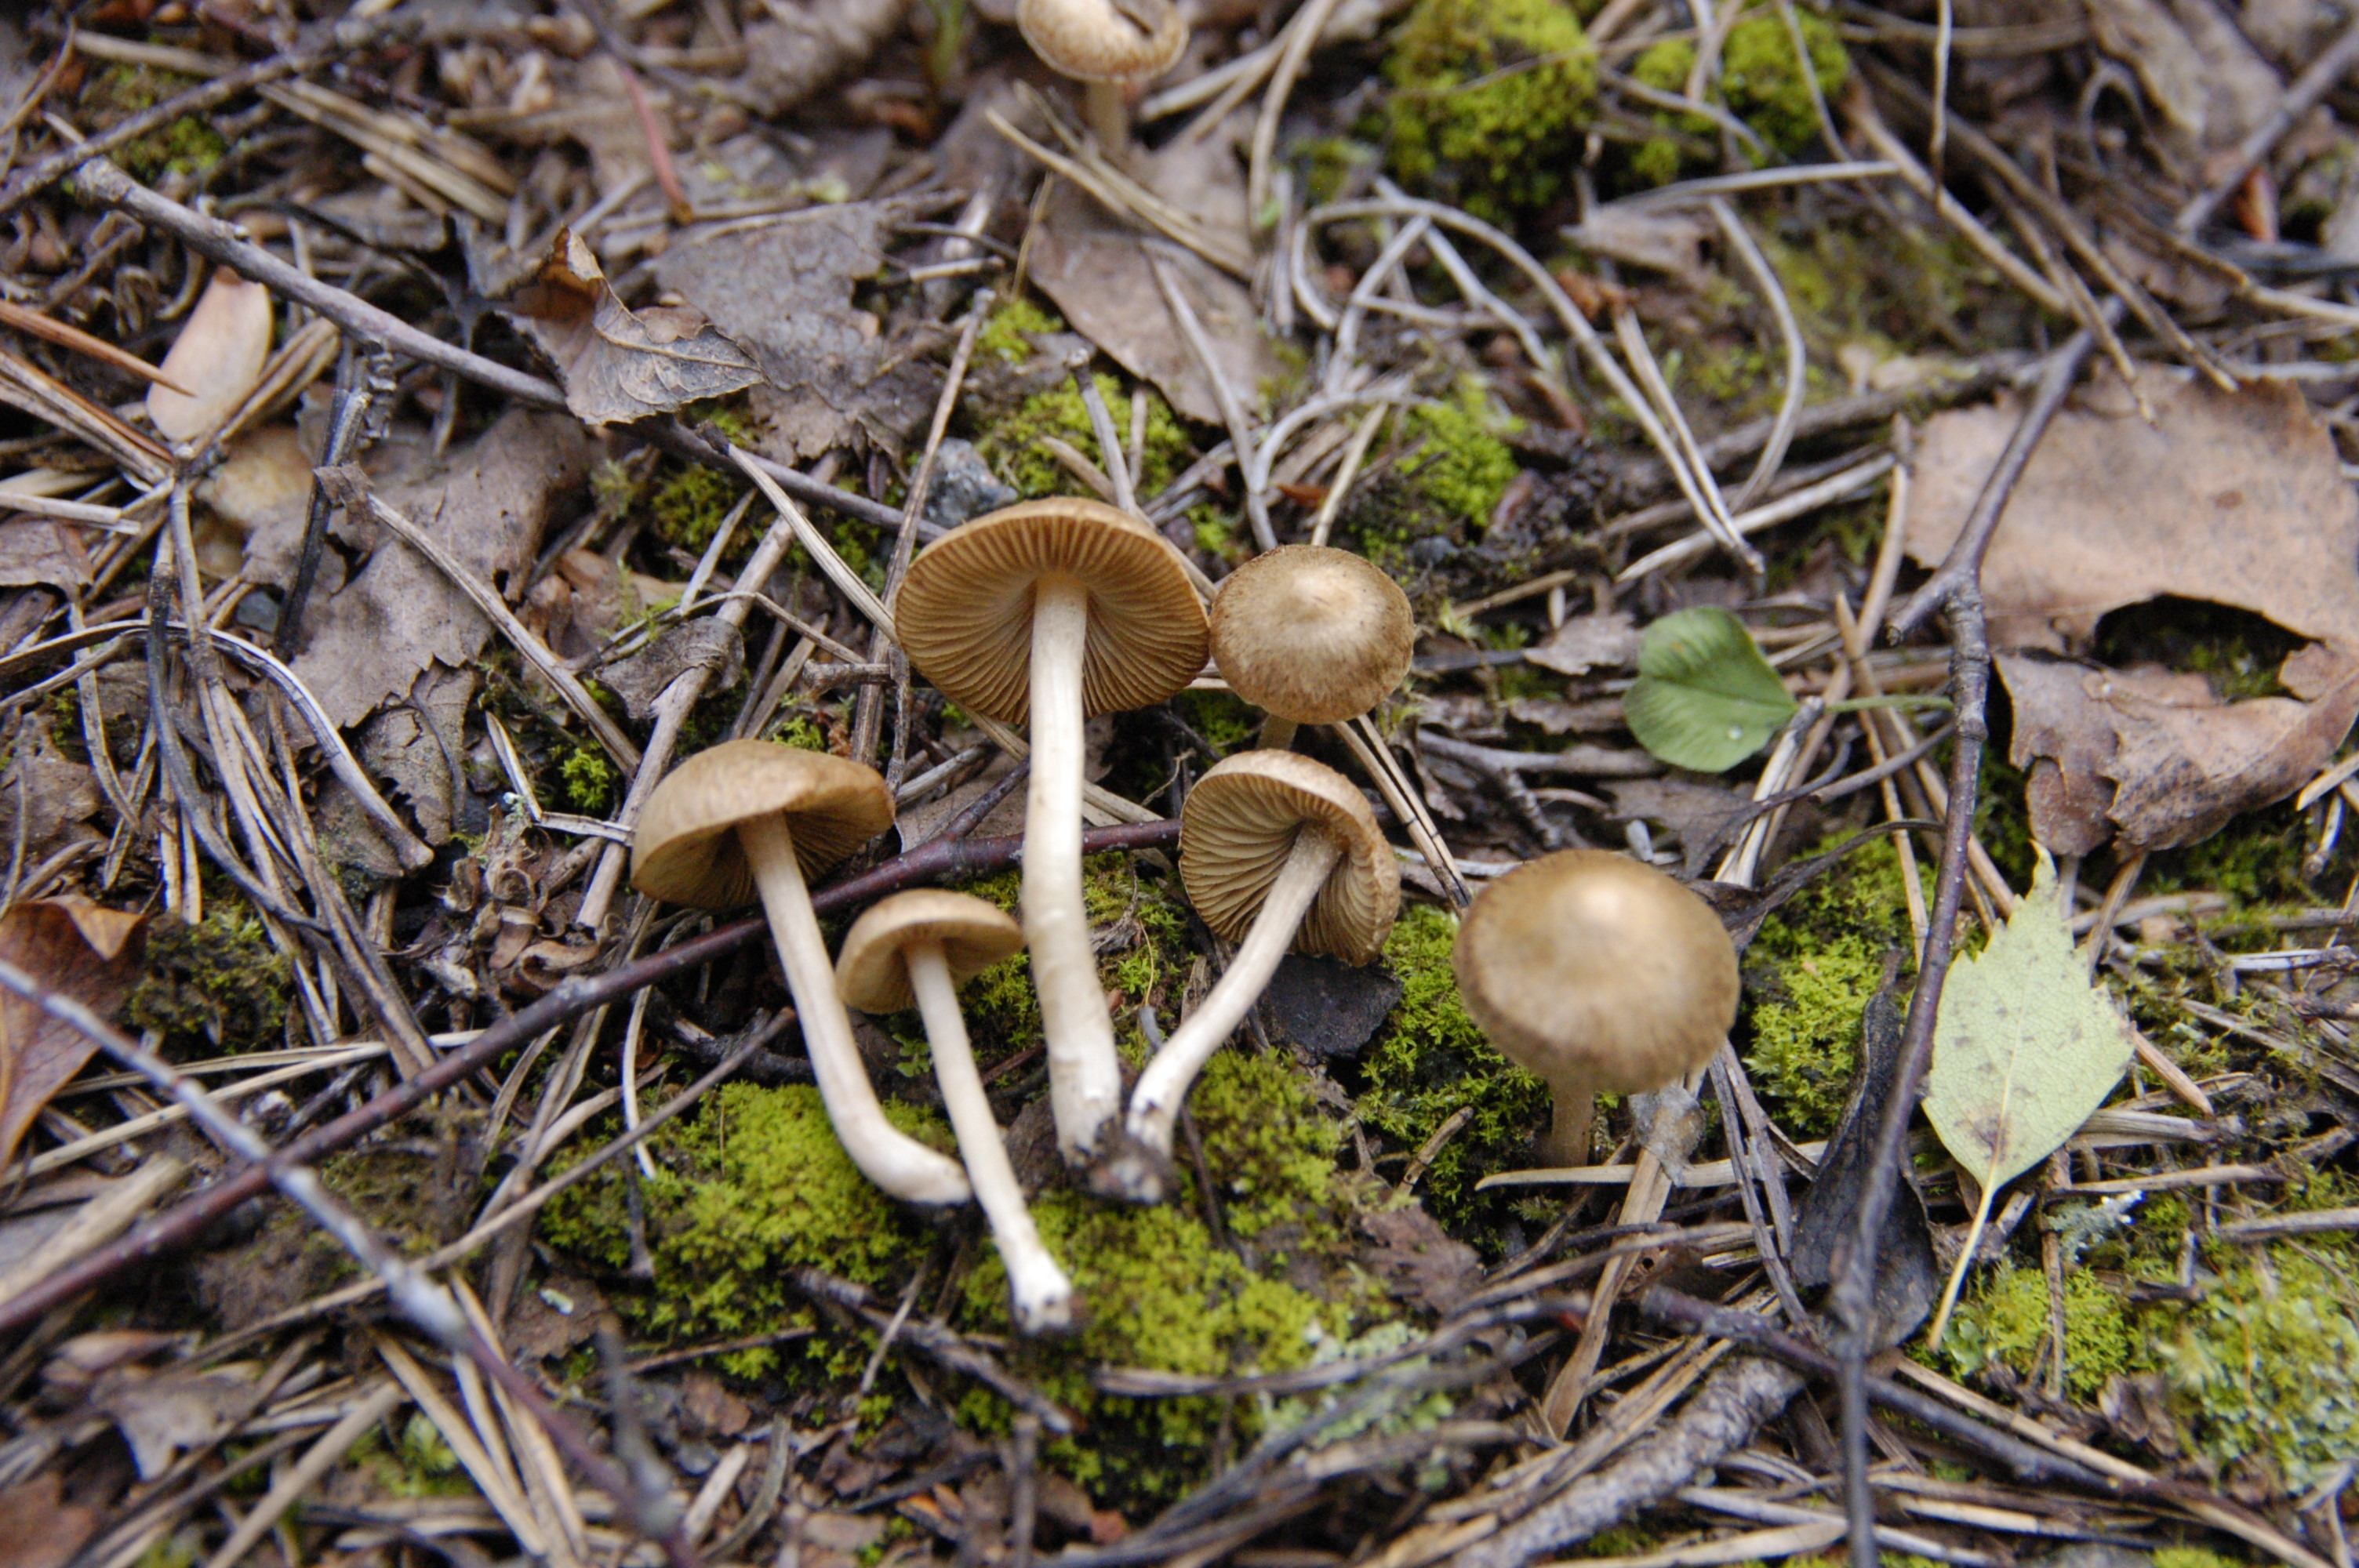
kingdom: Fungi
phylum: Basidiomycota
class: Agaricomycetes
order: Agaricales
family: Inocybaceae
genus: Inocybe
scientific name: Inocybe
